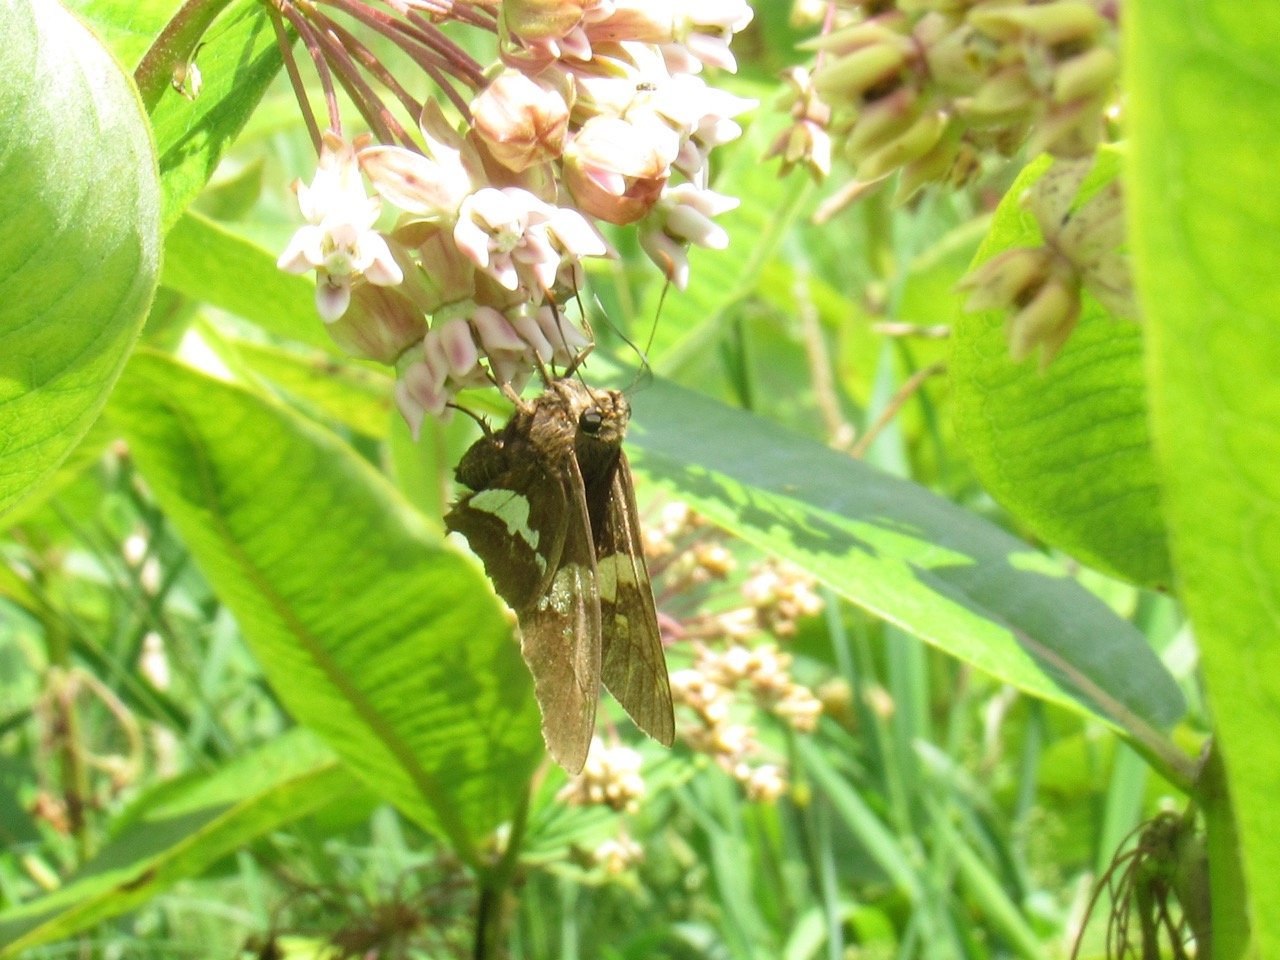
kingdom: Animalia
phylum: Arthropoda
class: Insecta
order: Lepidoptera
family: Hesperiidae
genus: Epargyreus
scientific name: Epargyreus clarus
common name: Silver-spotted Skipper
